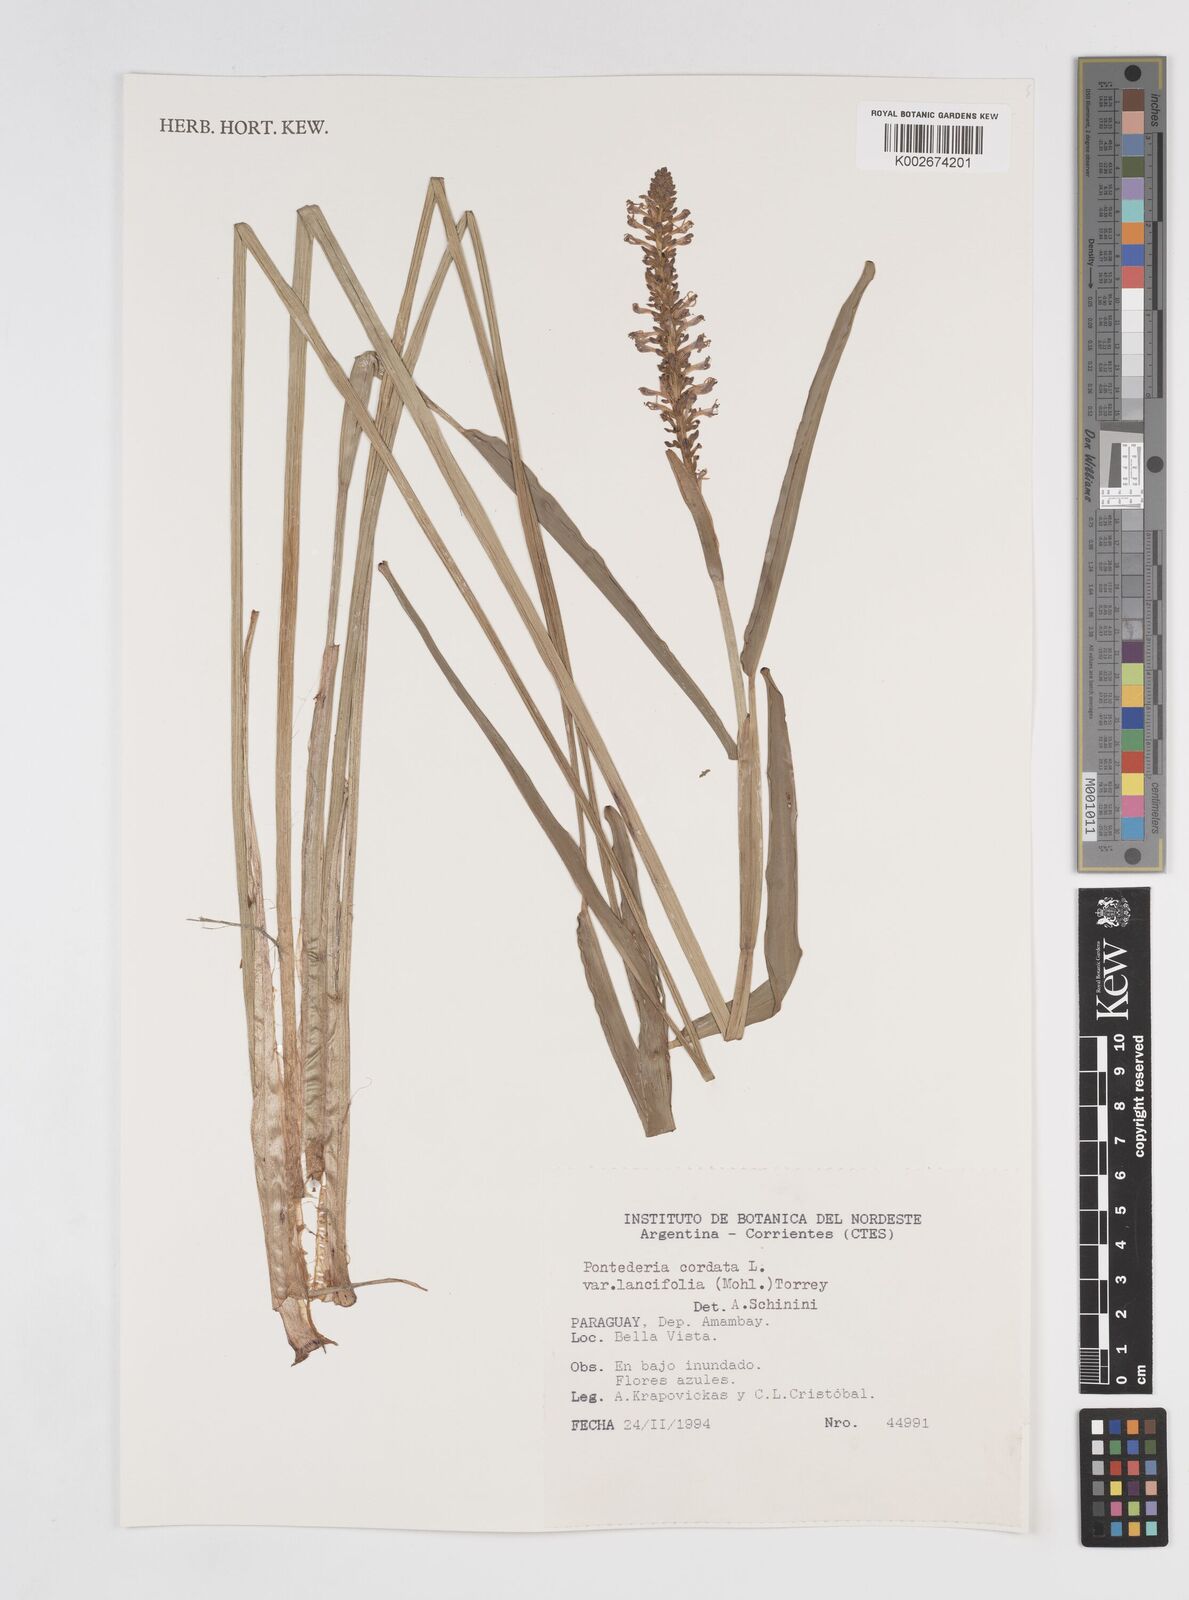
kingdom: Plantae
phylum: Tracheophyta
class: Liliopsida
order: Commelinales
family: Pontederiaceae
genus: Pontederia
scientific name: Pontederia
